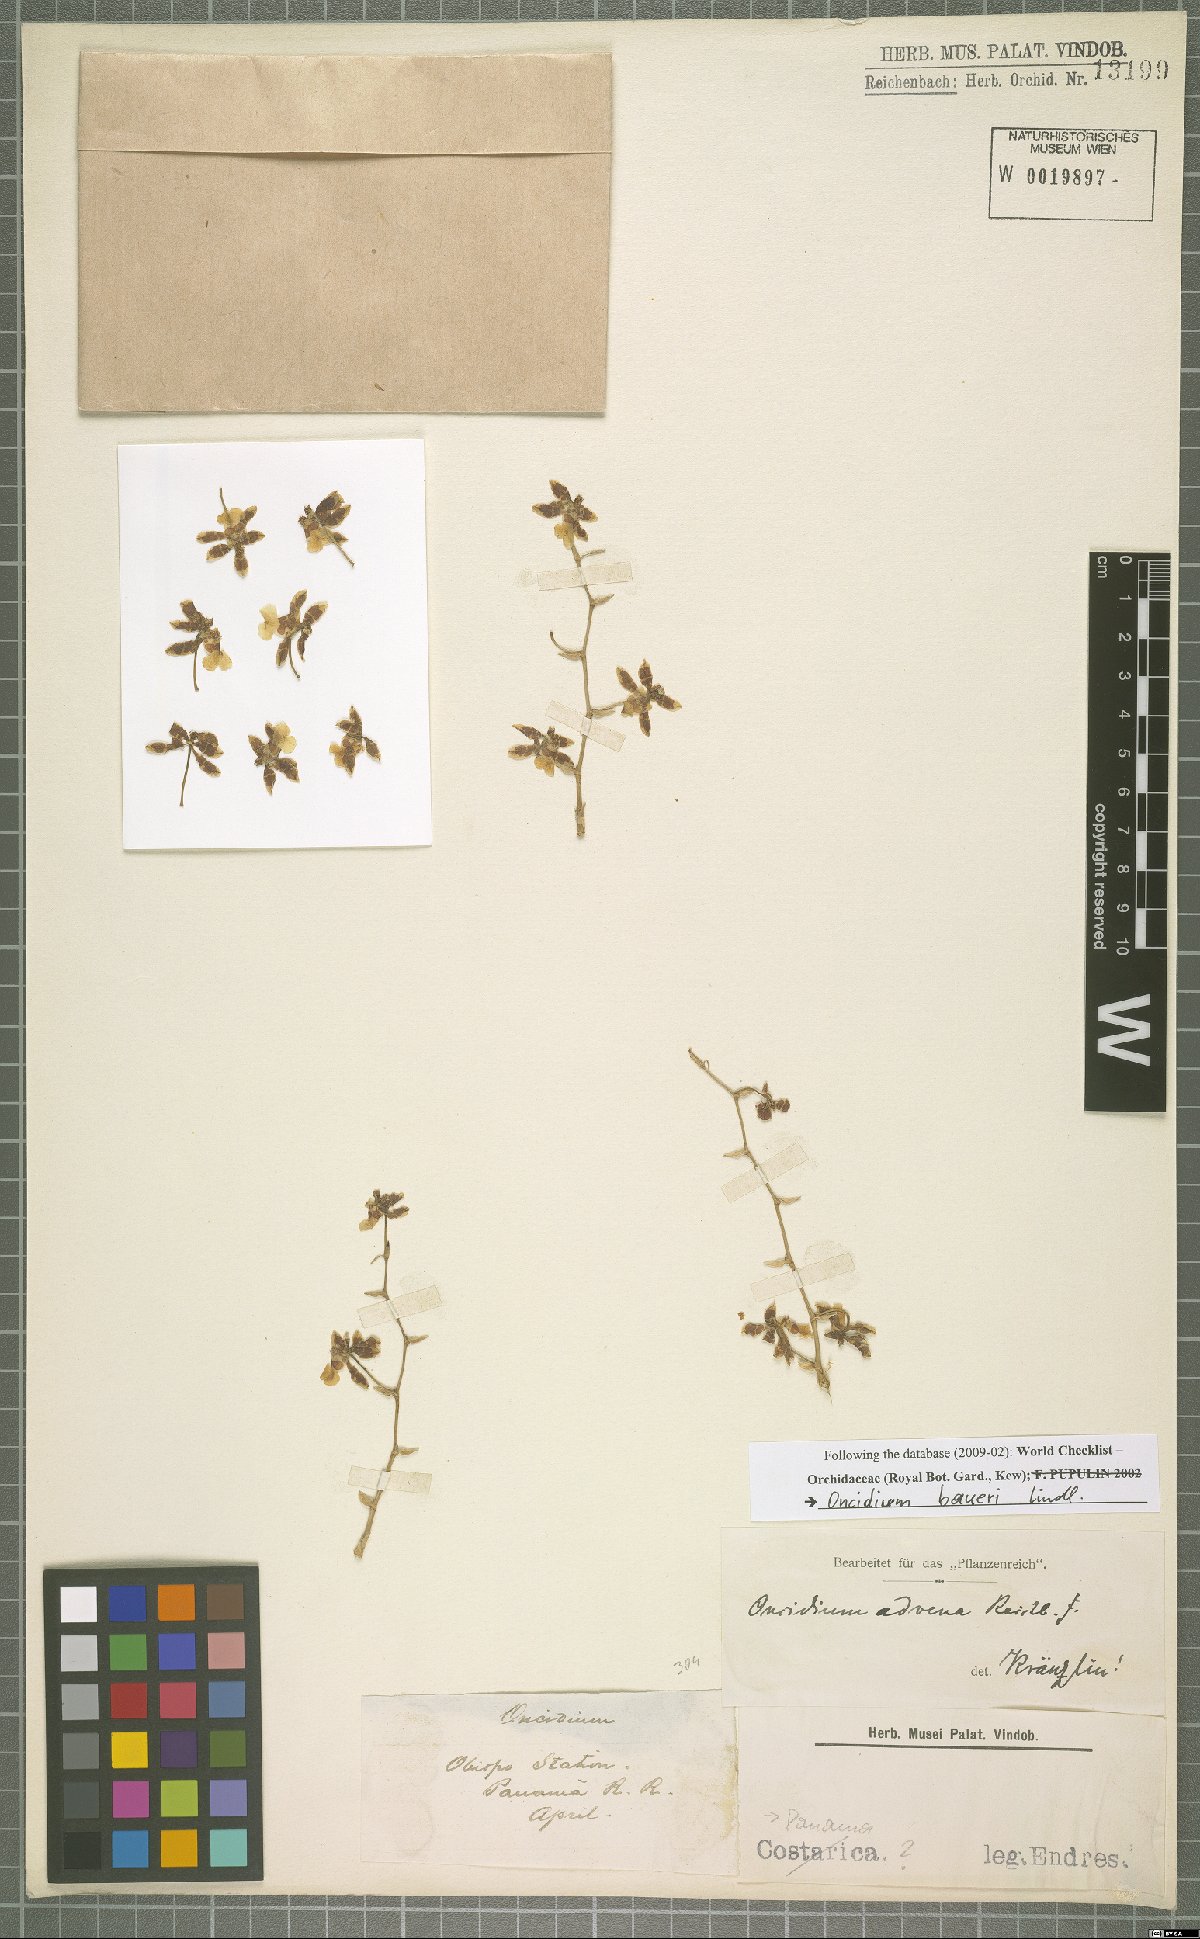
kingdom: Plantae
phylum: Tracheophyta
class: Liliopsida
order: Asparagales
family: Orchidaceae
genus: Oncidium
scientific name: Oncidium baueri
